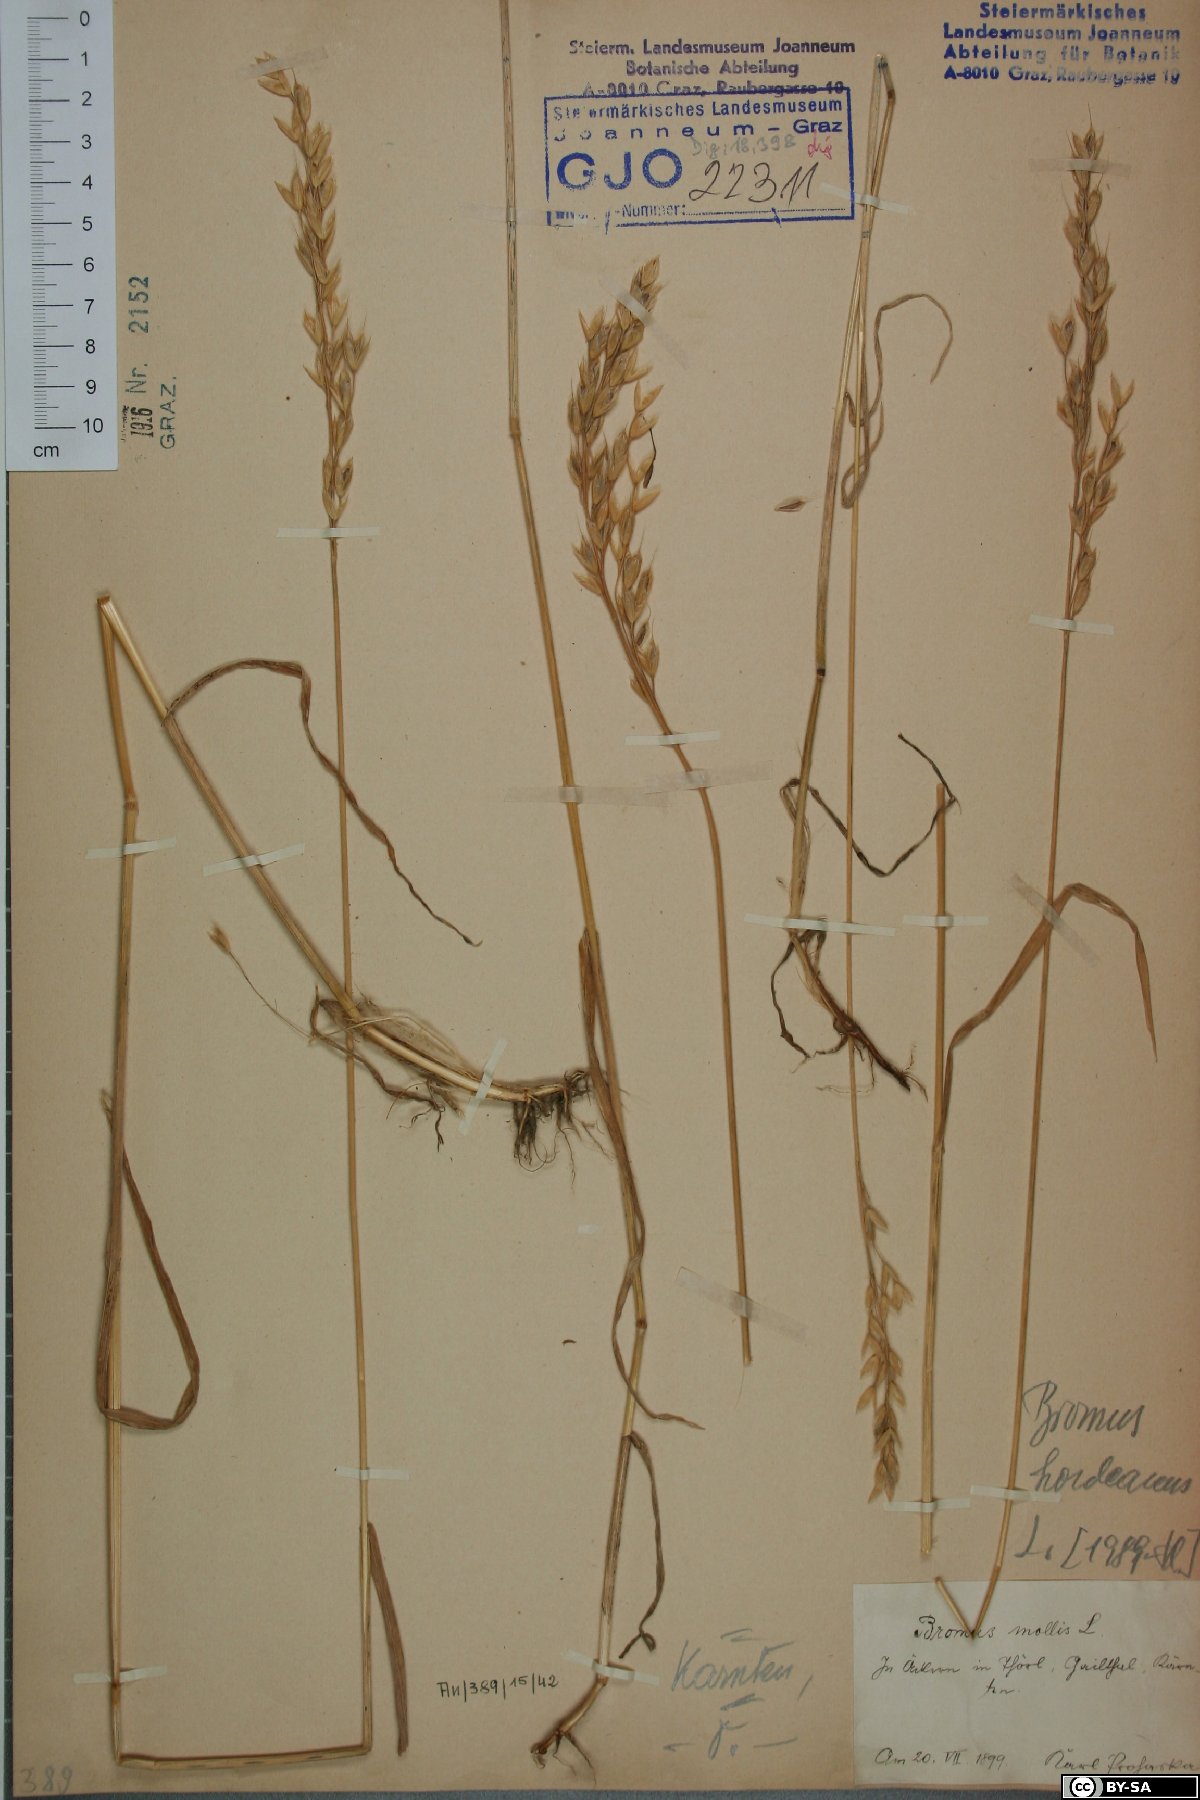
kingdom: Plantae
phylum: Tracheophyta
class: Liliopsida
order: Poales
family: Poaceae
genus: Bromus
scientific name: Bromus hordeaceus
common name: Soft brome
